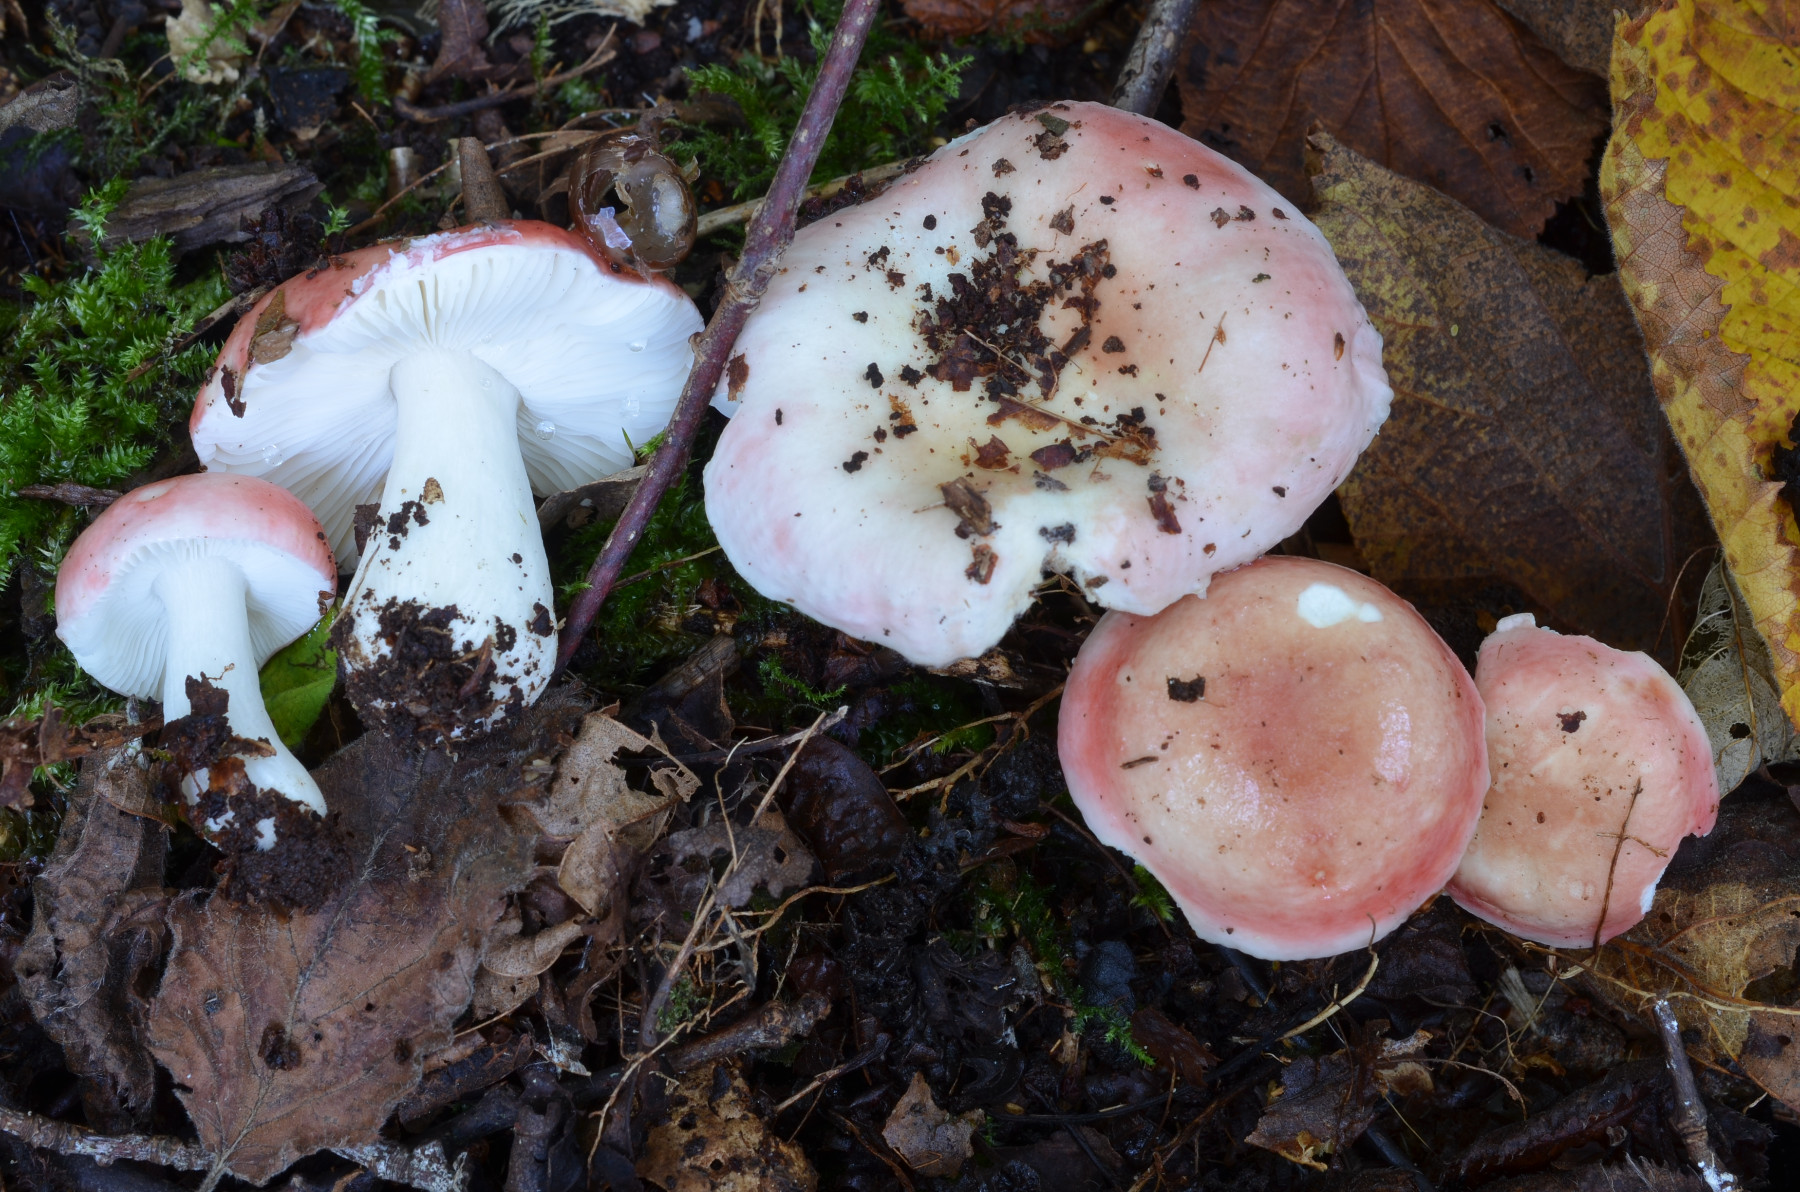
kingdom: Fungi
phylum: Basidiomycota
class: Agaricomycetes
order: Russulales
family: Russulaceae
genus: Russula
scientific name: Russula betularum
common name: bleg gift-skørhat
